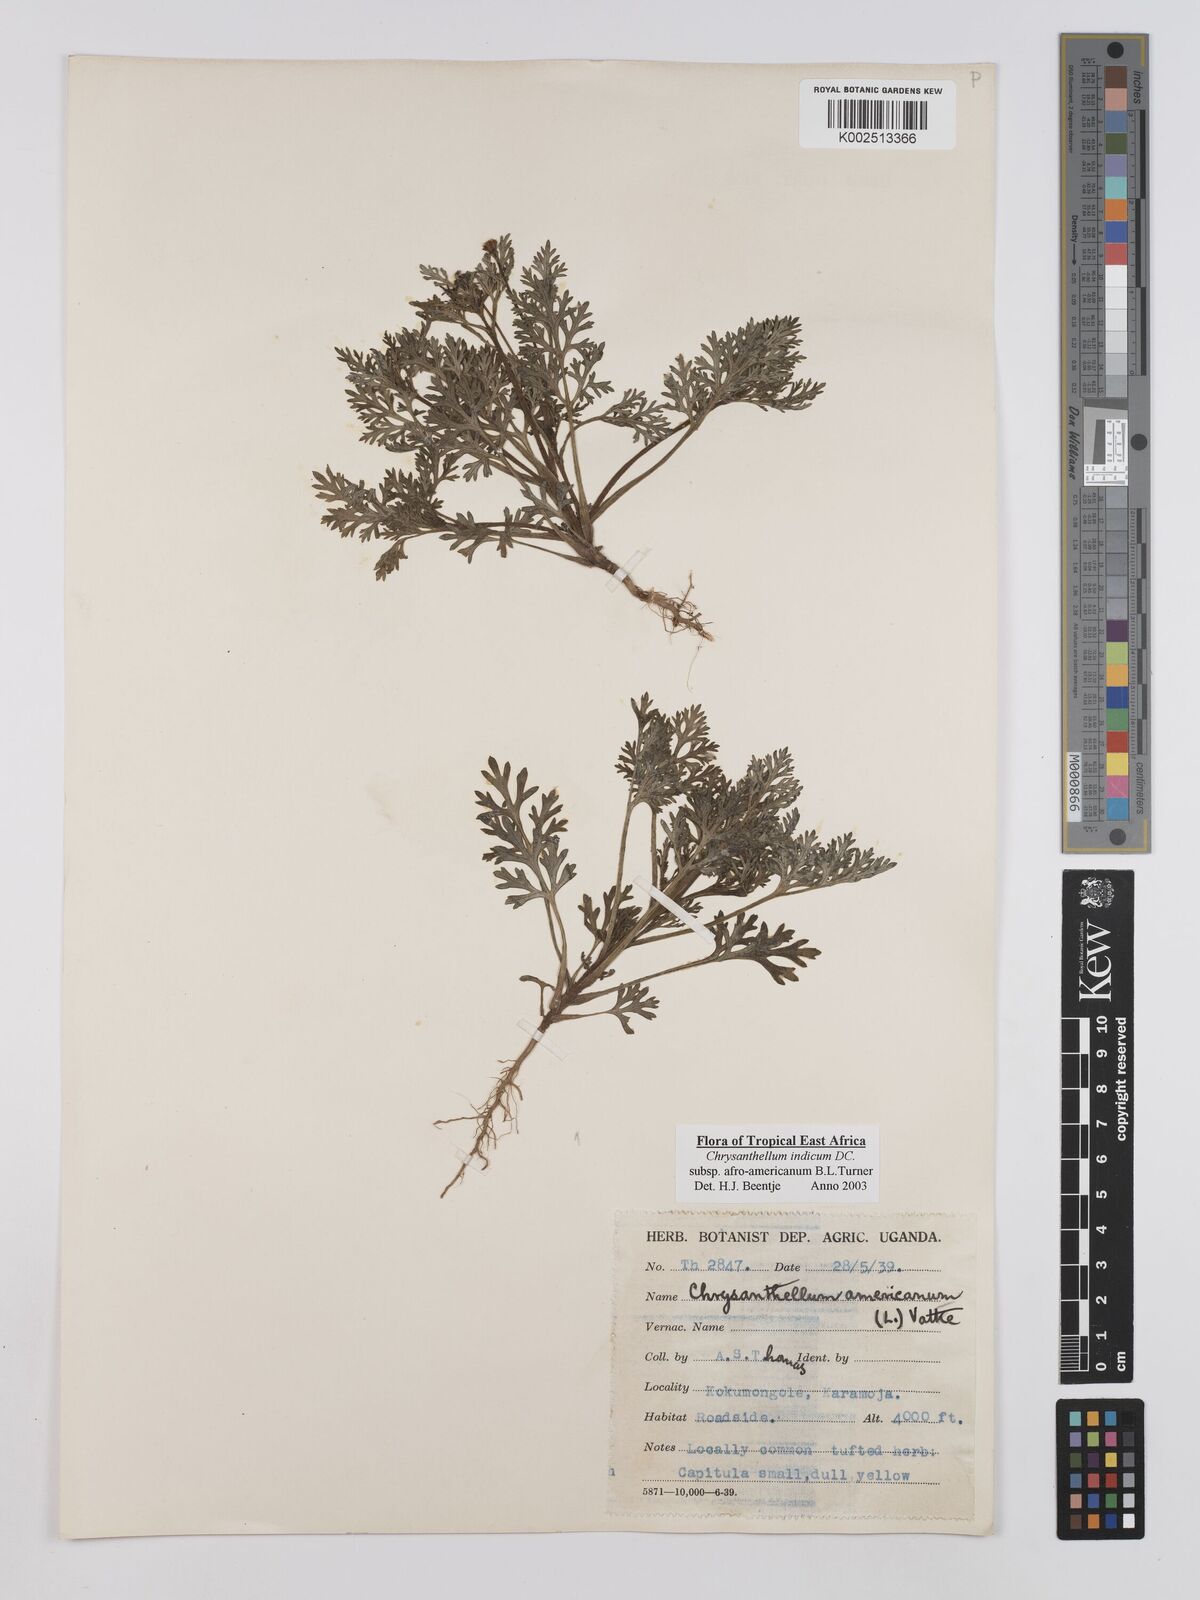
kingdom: Plantae
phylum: Tracheophyta
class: Magnoliopsida
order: Asterales
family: Asteraceae
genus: Chrysanthellum
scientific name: Chrysanthellum indicum
